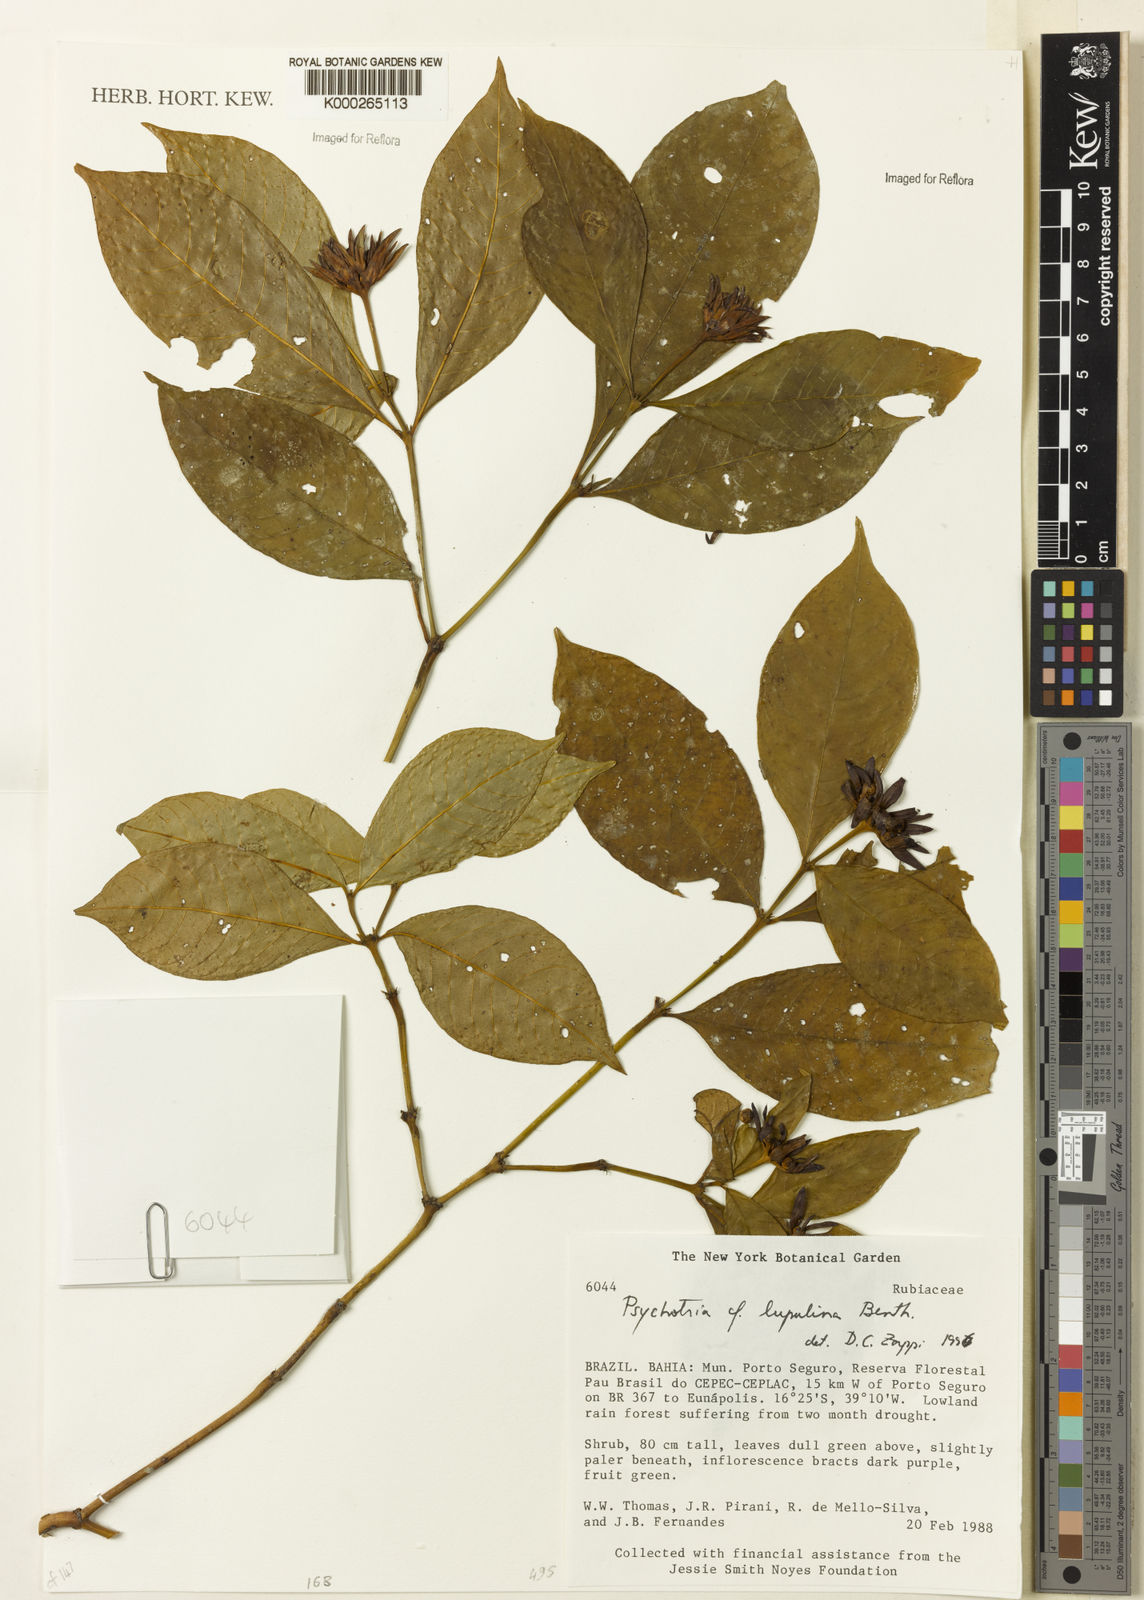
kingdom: Plantae
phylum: Tracheophyta
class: Magnoliopsida
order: Gentianales
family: Rubiaceae
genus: Palicourea
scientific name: Palicourea justiciifolia
